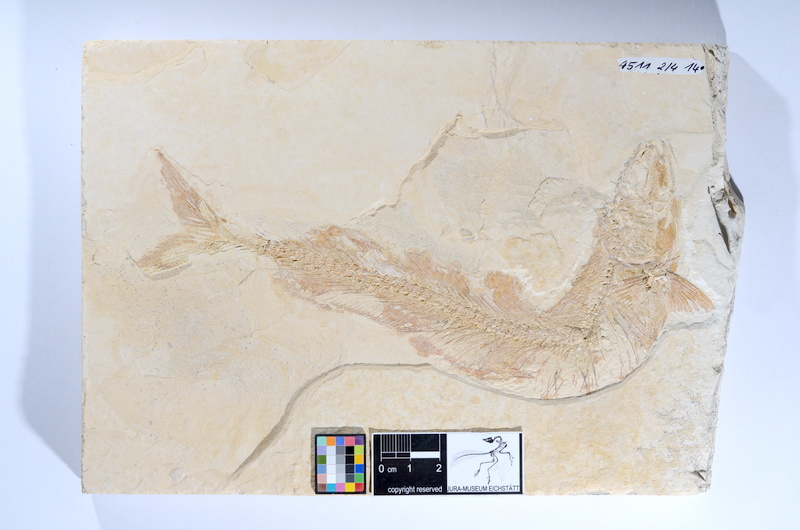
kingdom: Animalia
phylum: Chordata
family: Allothrissopidae
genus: Allothrissops
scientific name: Allothrissops mesogaster
